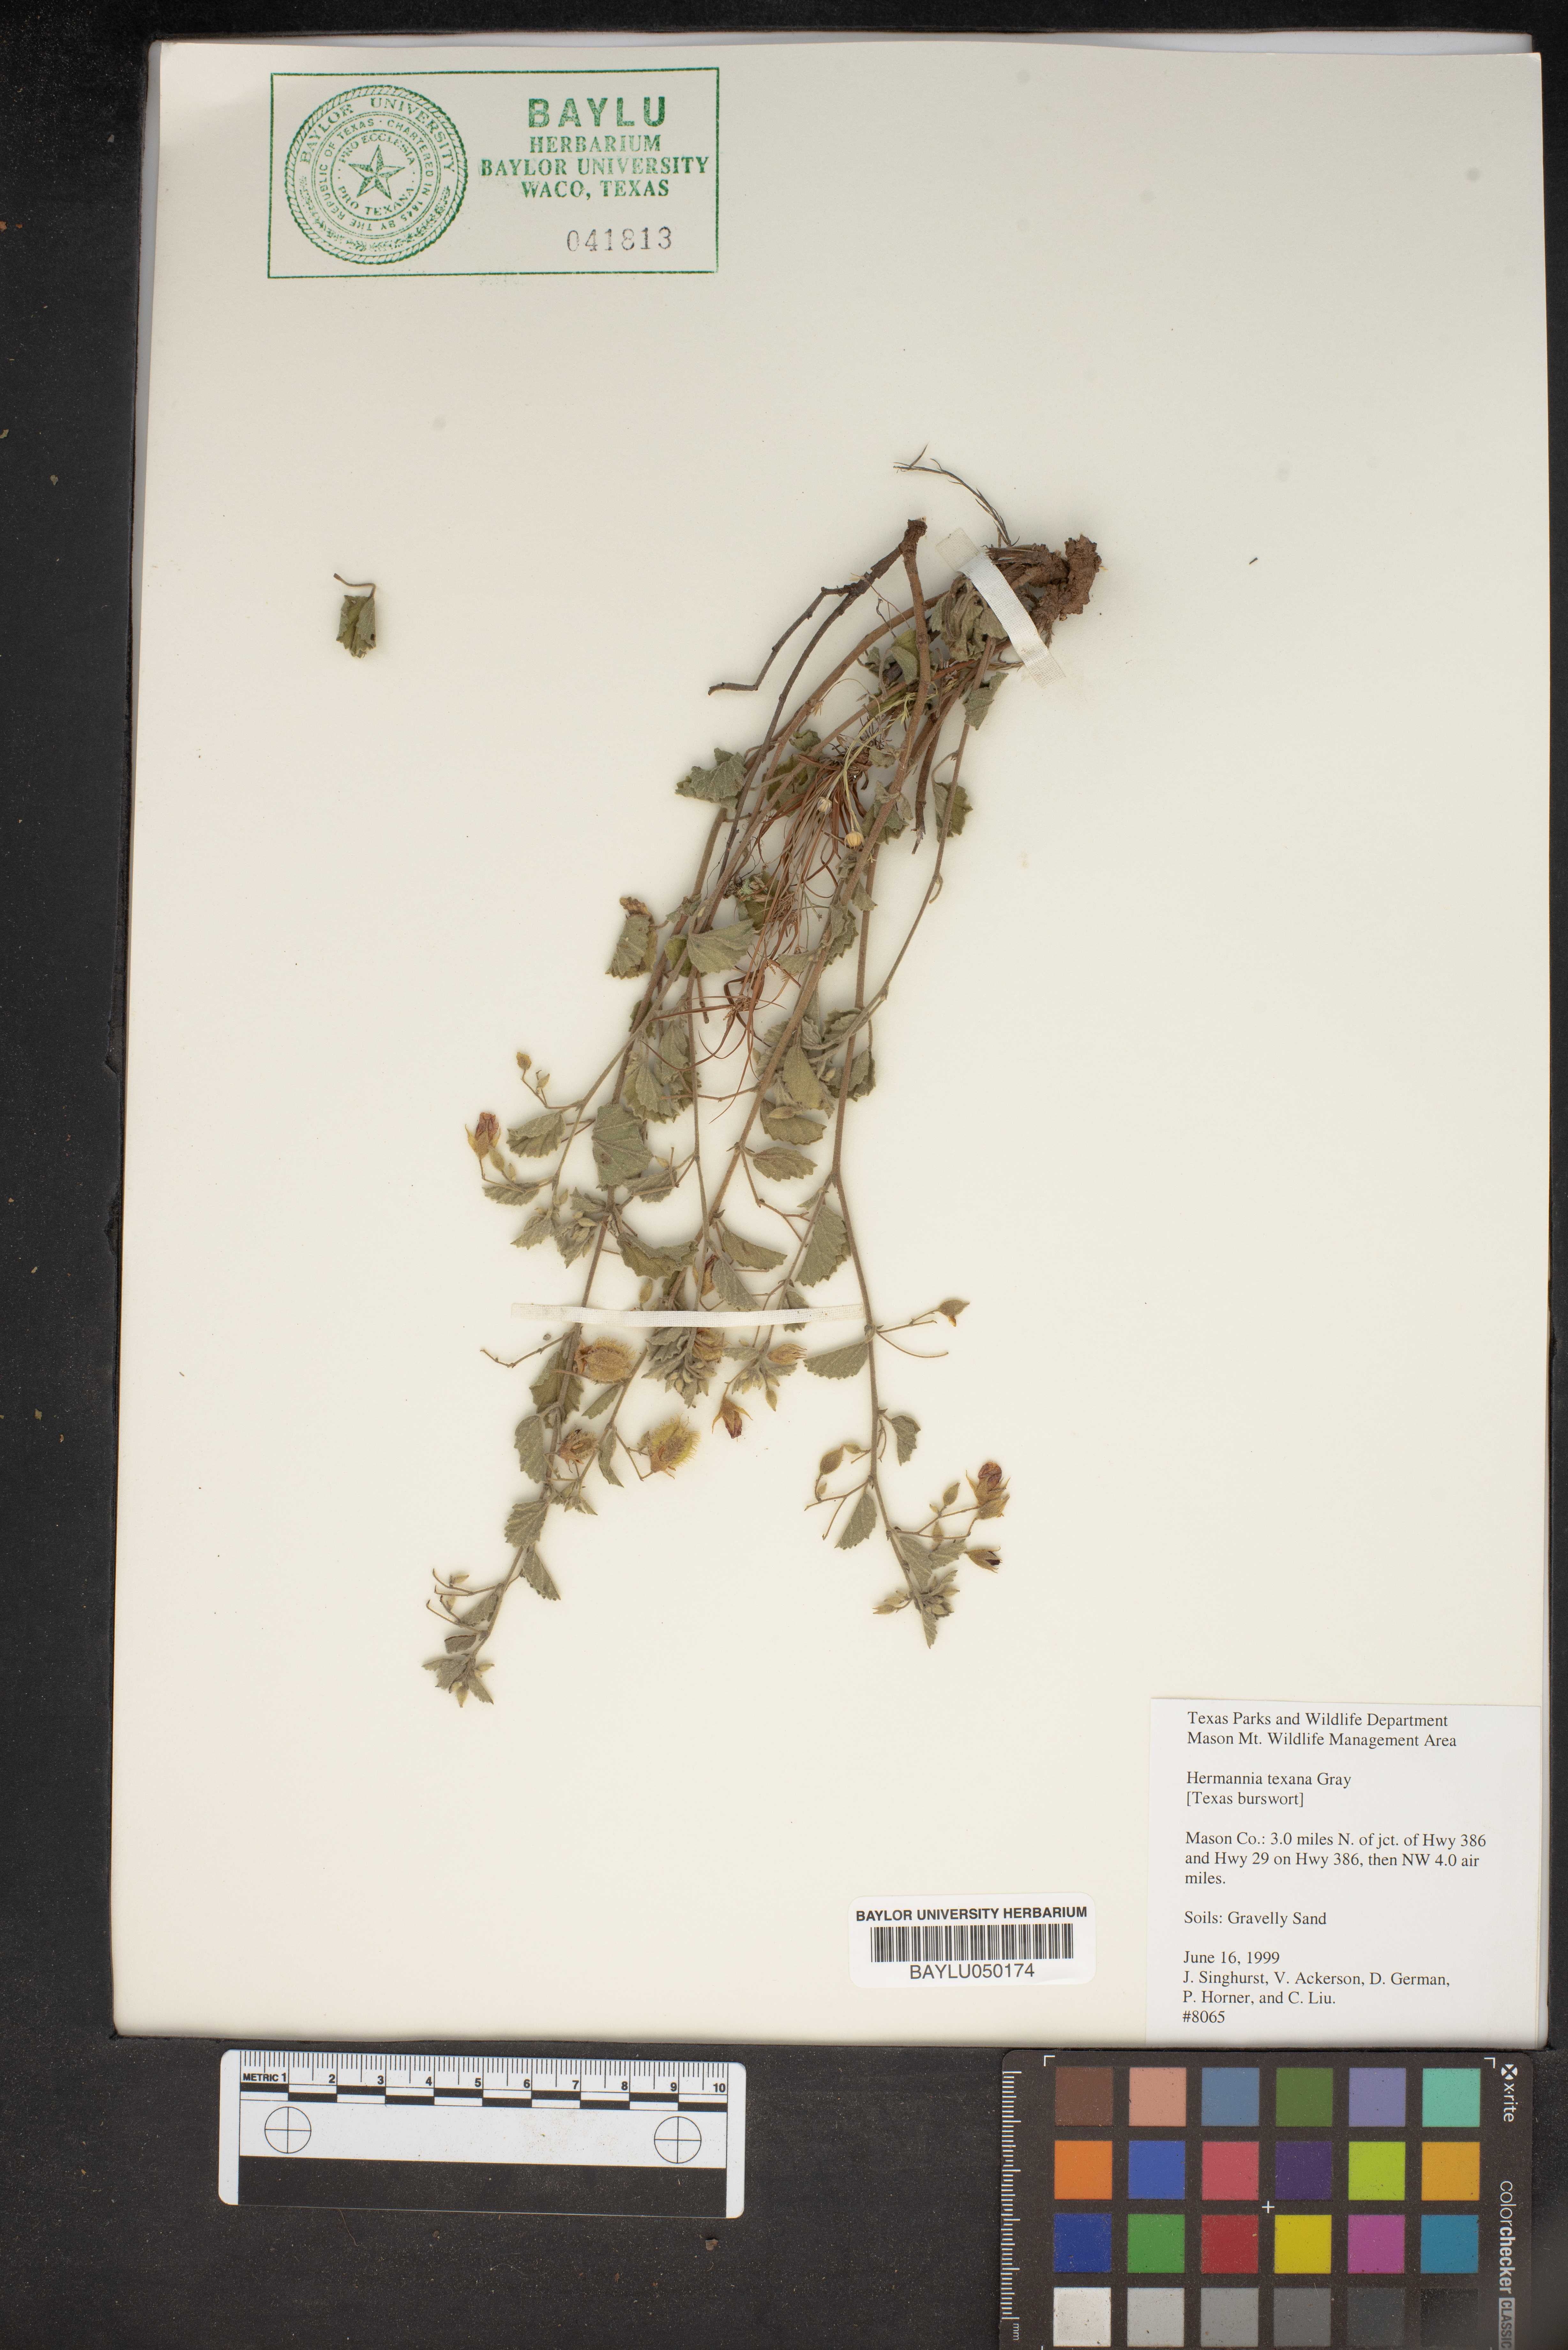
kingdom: Plantae
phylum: Tracheophyta
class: Magnoliopsida
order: Malvales
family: Malvaceae
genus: Hermannia
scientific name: Hermannia texana
